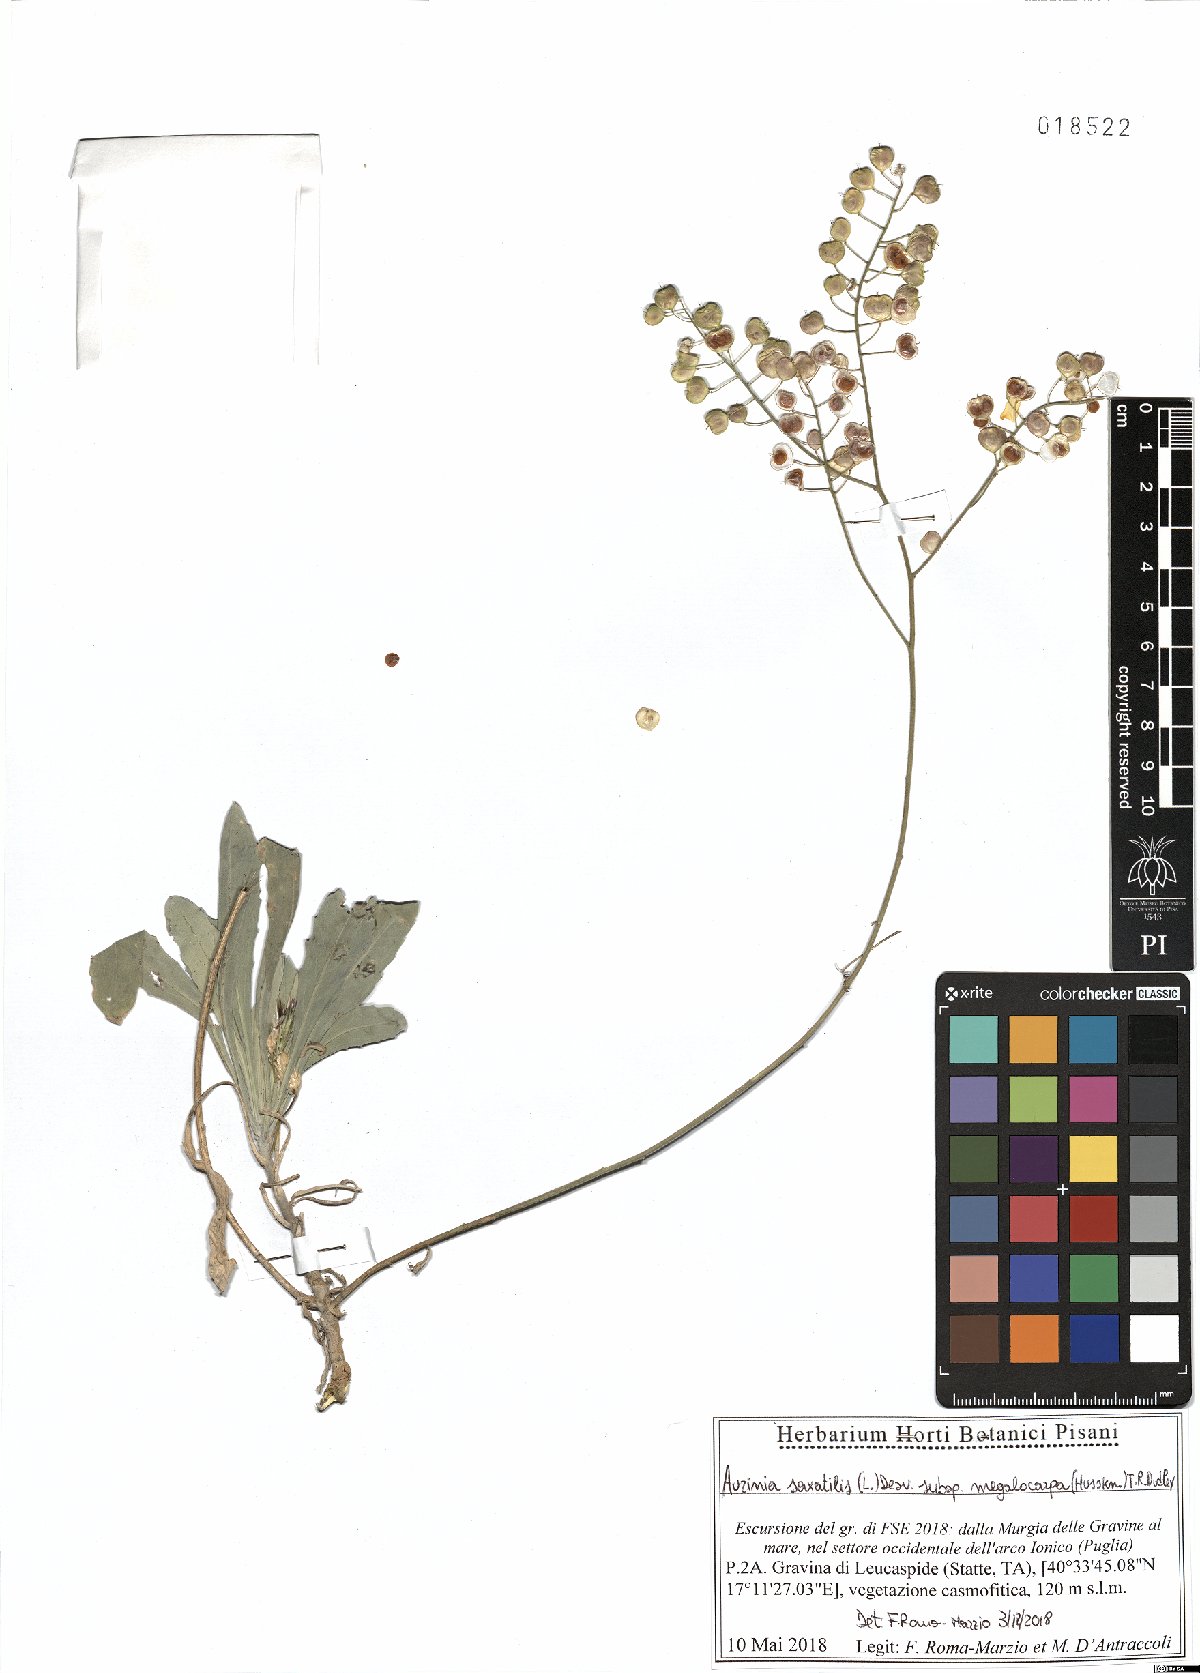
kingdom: Plantae
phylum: Tracheophyta
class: Magnoliopsida
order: Brassicales
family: Brassicaceae
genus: Aurinia
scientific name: Aurinia saxatilis
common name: Golden-tuft alyssum
